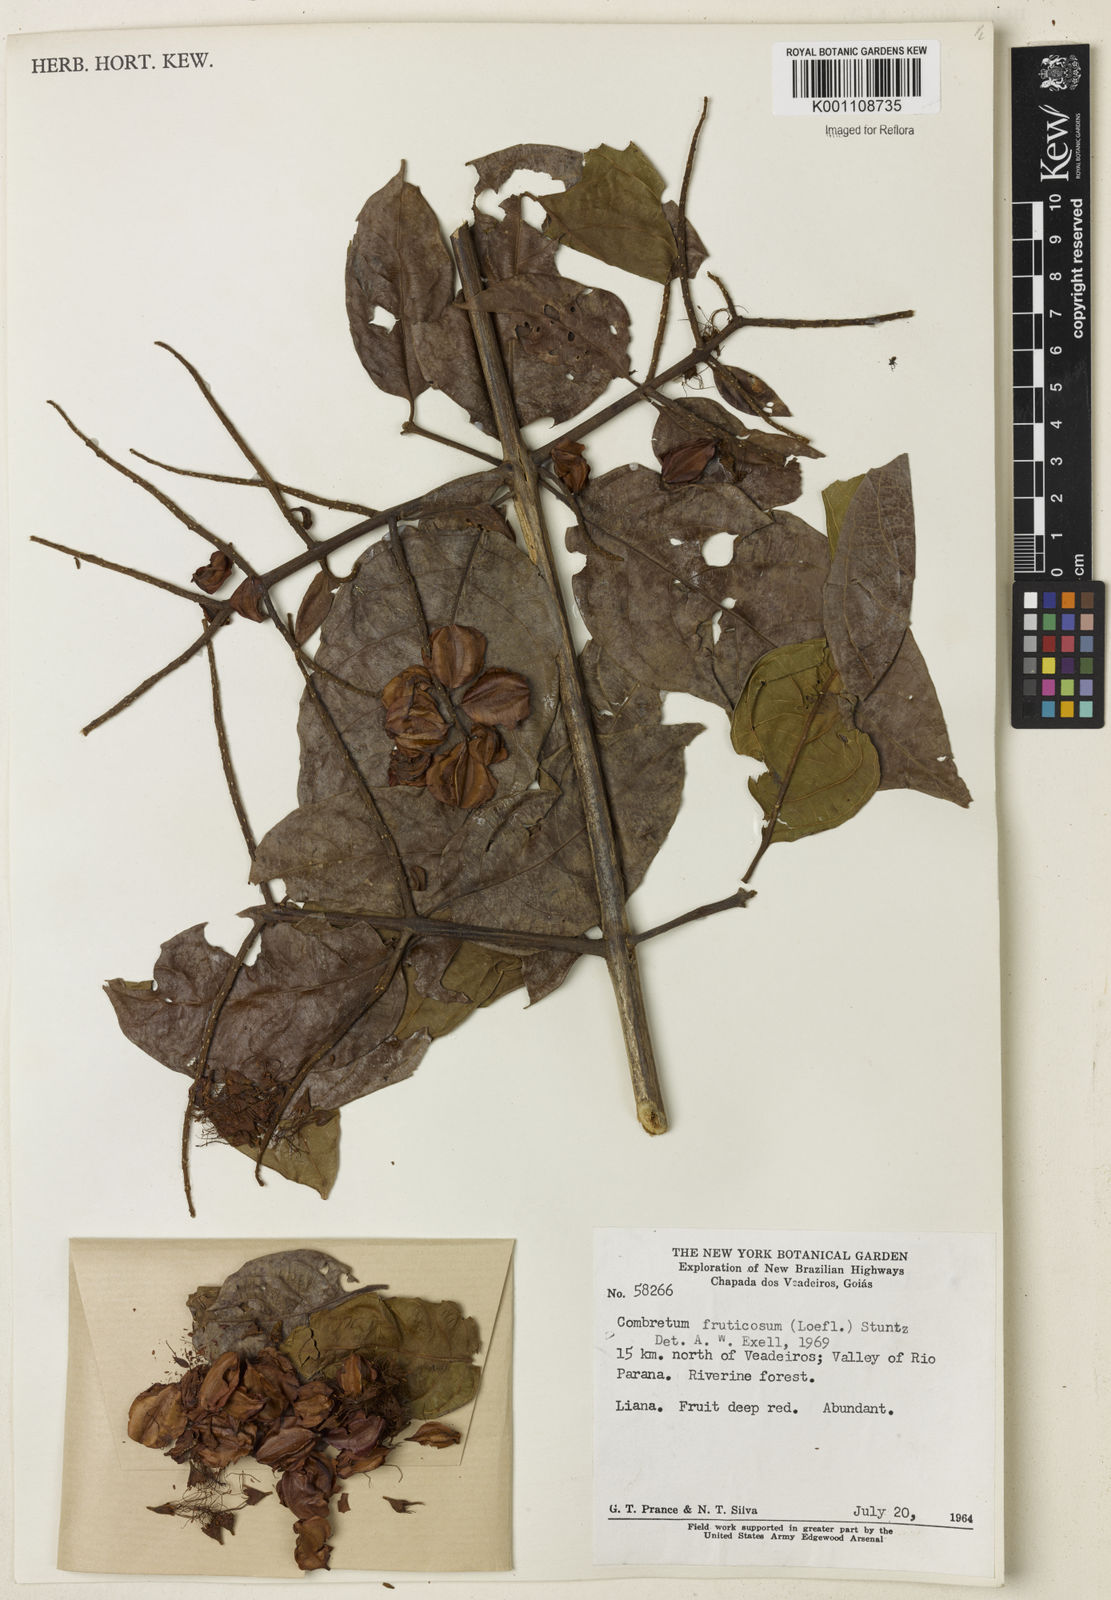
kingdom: Plantae
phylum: Tracheophyta
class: Magnoliopsida
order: Myrtales
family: Combretaceae
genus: Combretum
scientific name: Combretum fruticosum
